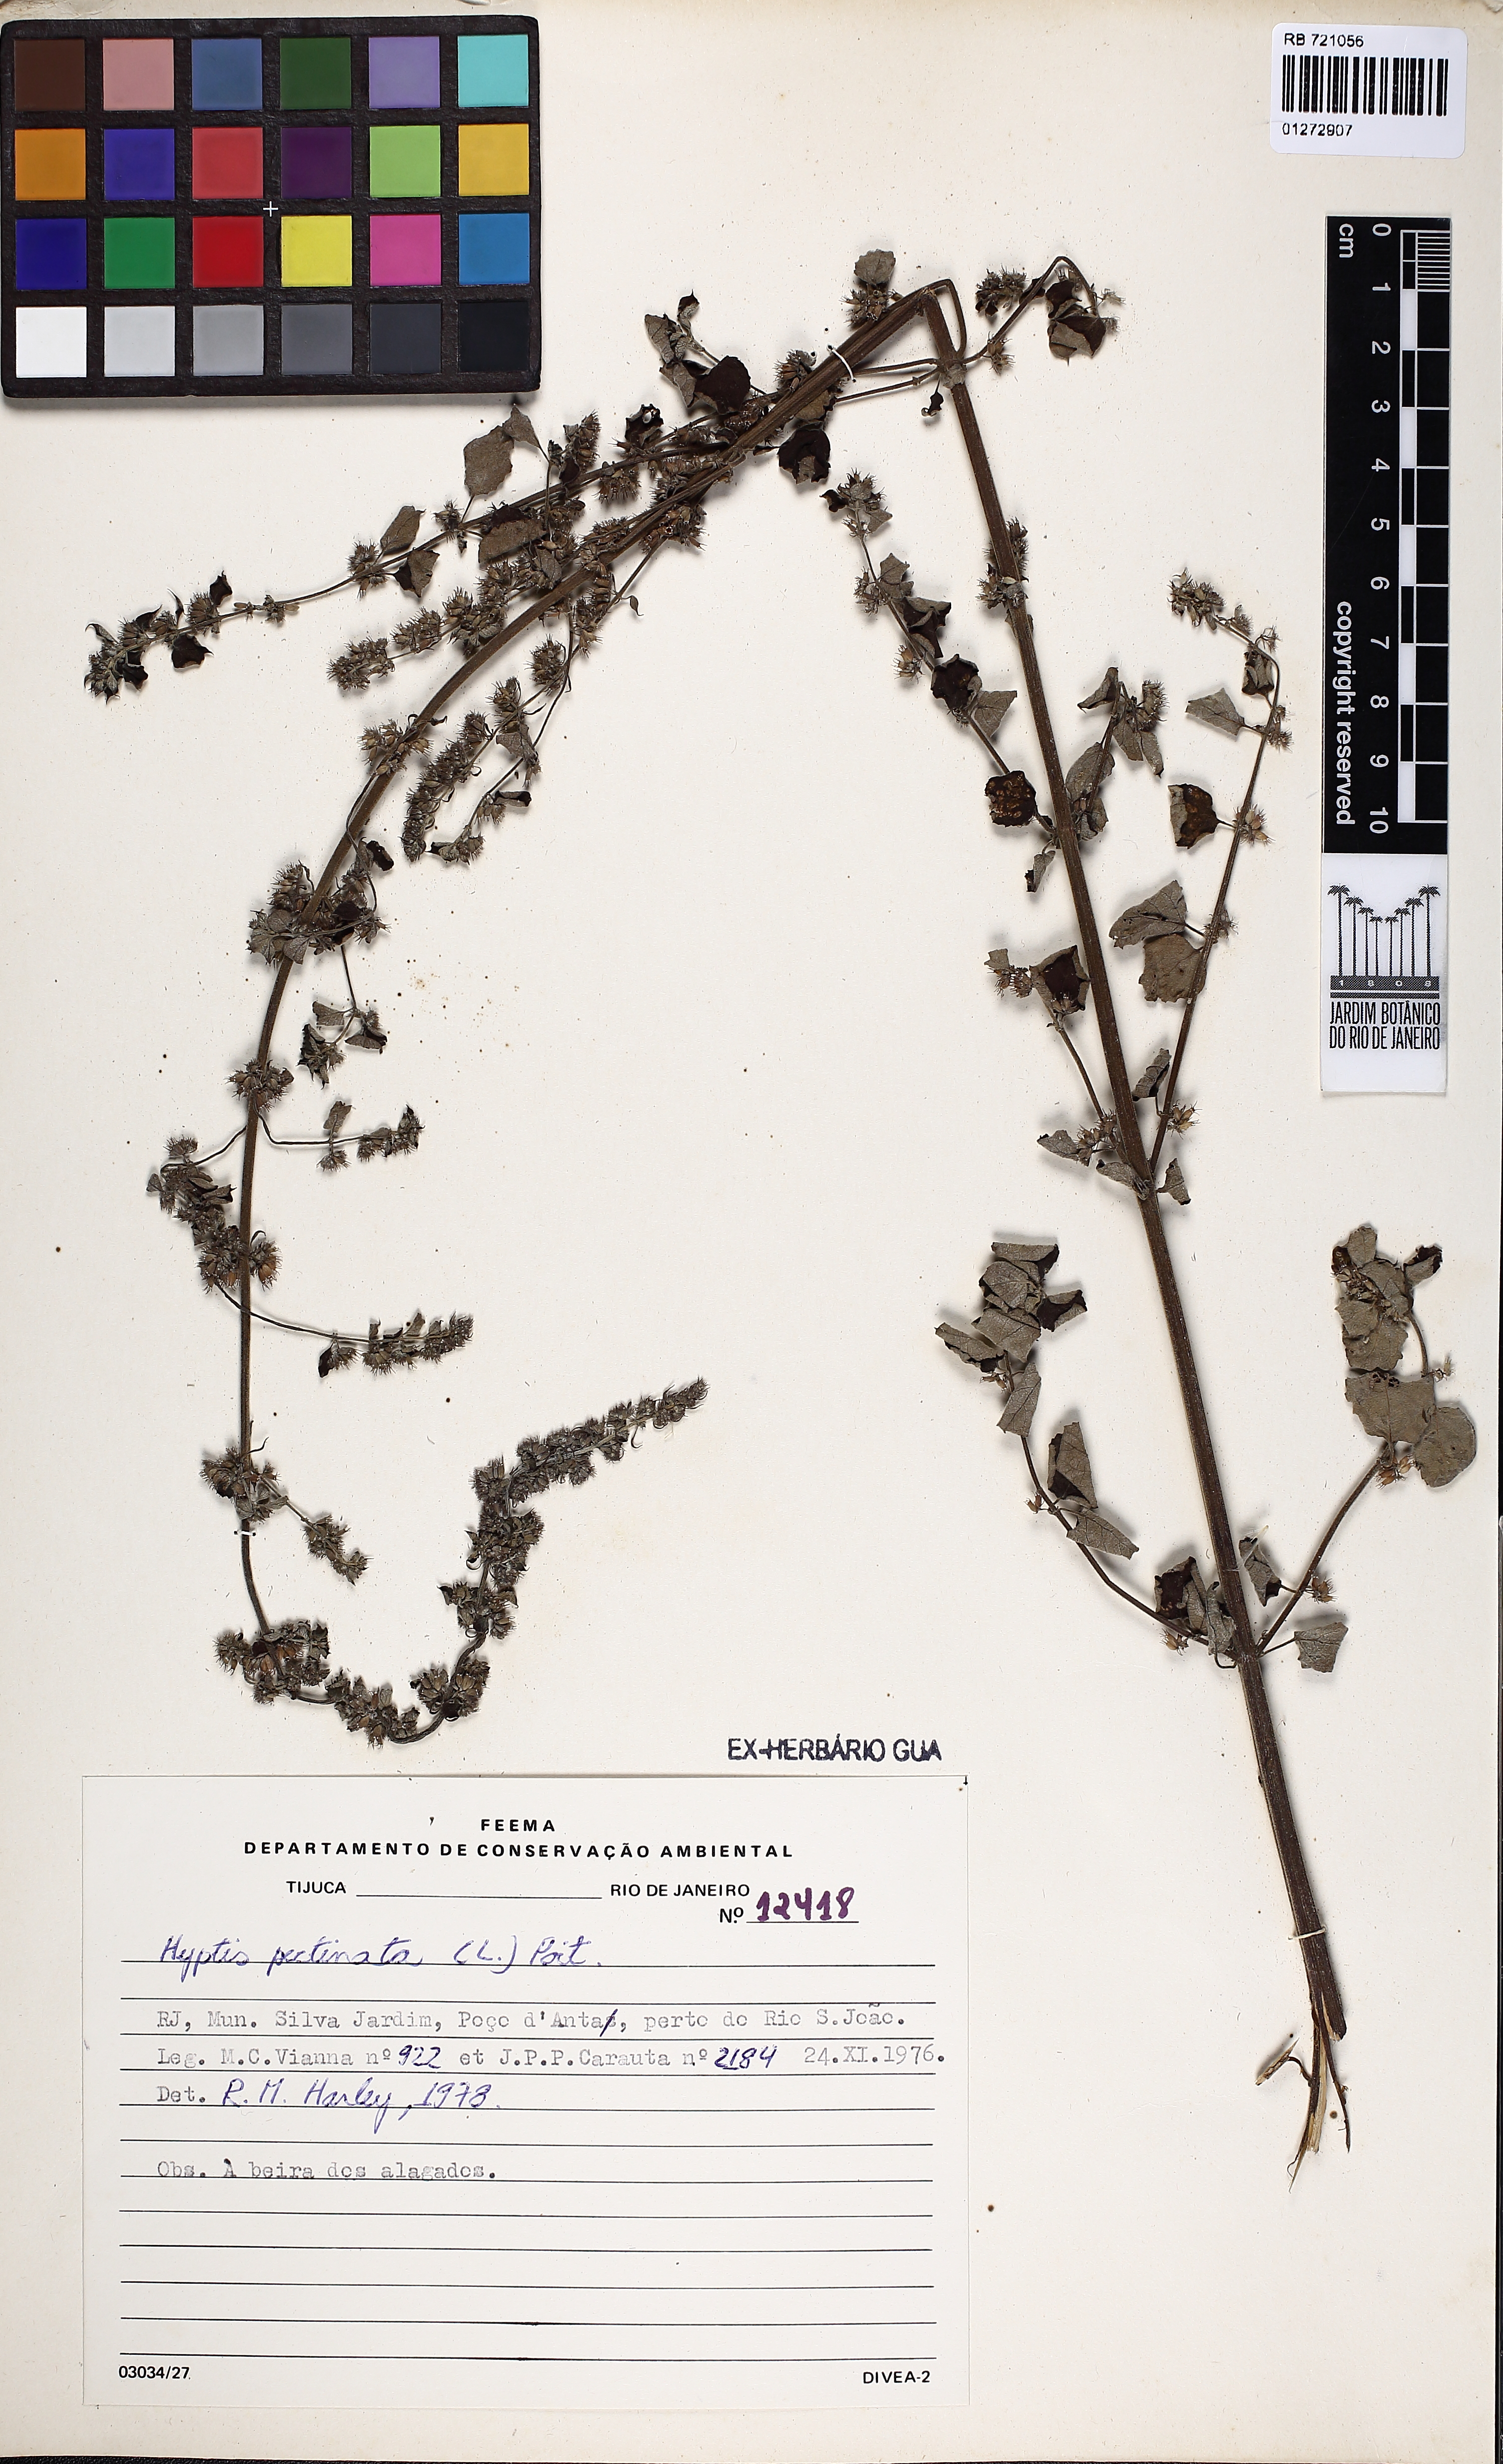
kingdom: Plantae
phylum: Tracheophyta
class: Magnoliopsida
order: Lamiales
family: Lamiaceae
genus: Mesosphaerum
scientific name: Mesosphaerum pectinatum
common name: Comb hyptis
